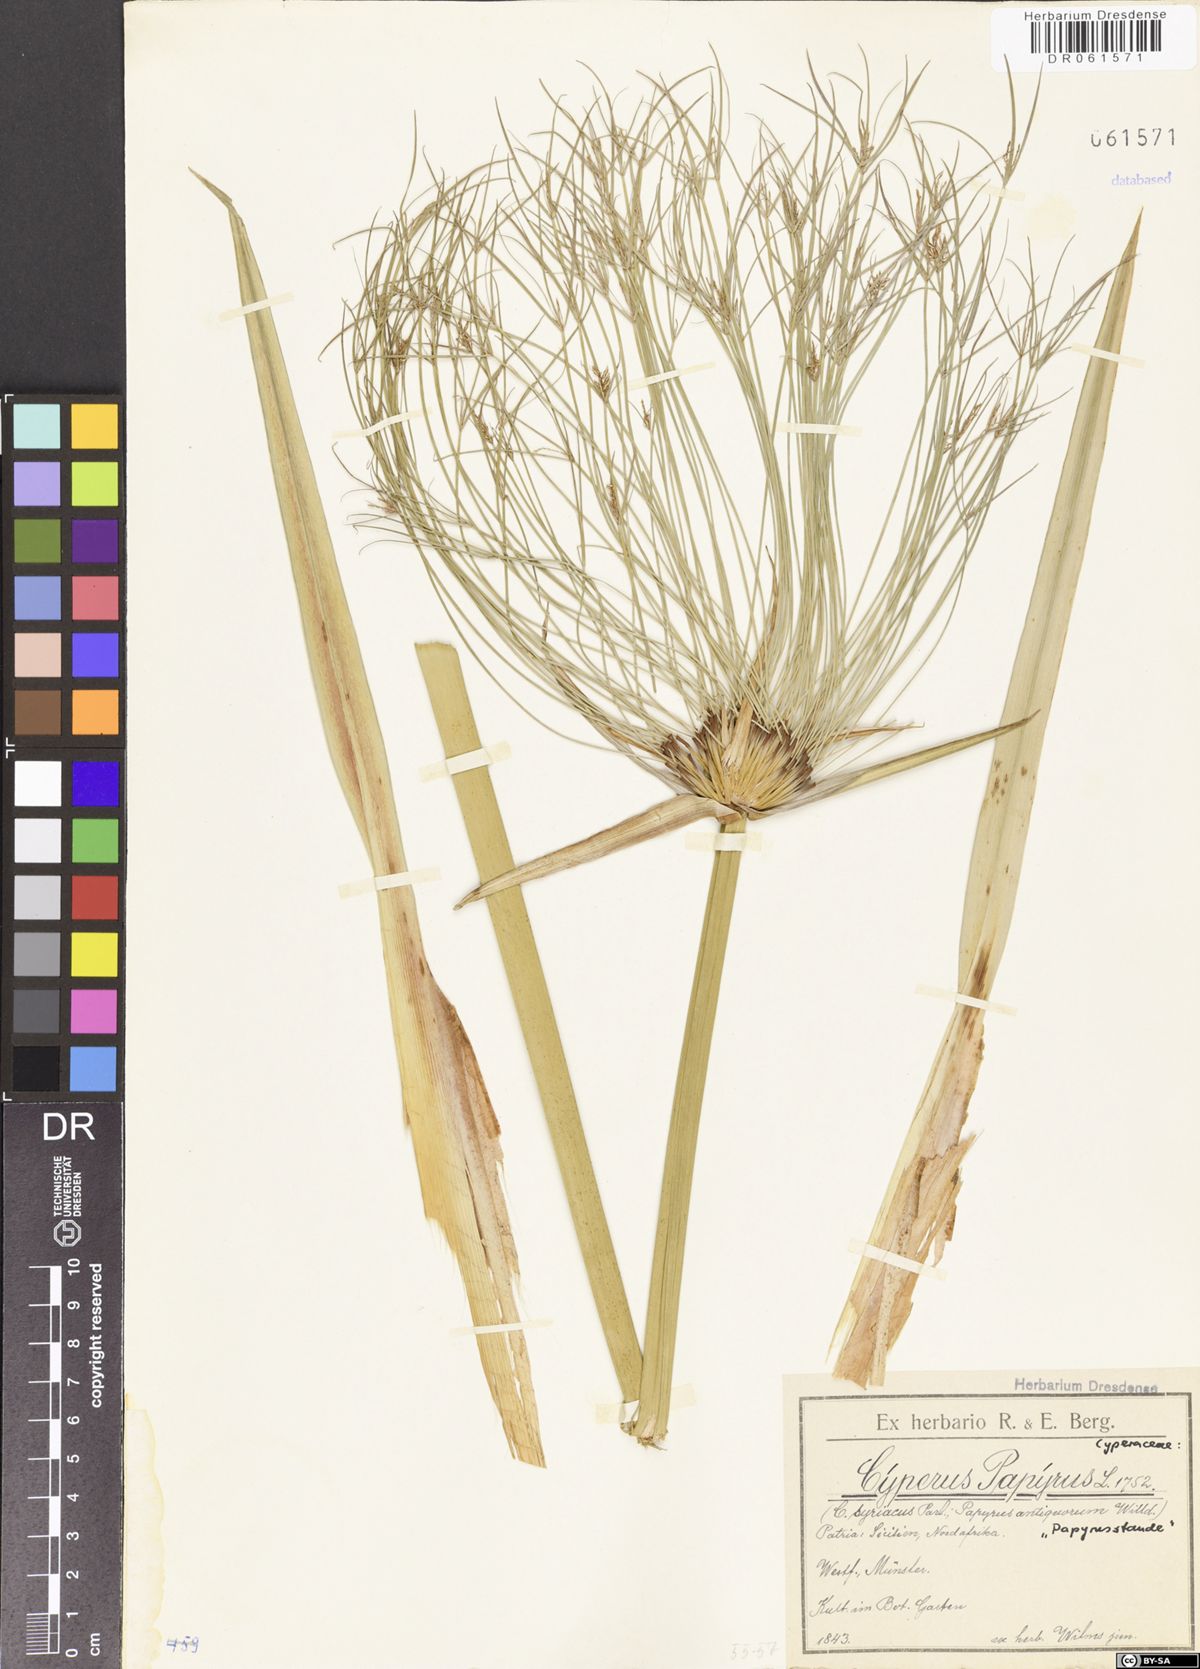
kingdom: Plantae
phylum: Tracheophyta
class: Liliopsida
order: Poales
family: Cyperaceae
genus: Cyperus
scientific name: Cyperus papyrus
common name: Papyrus
